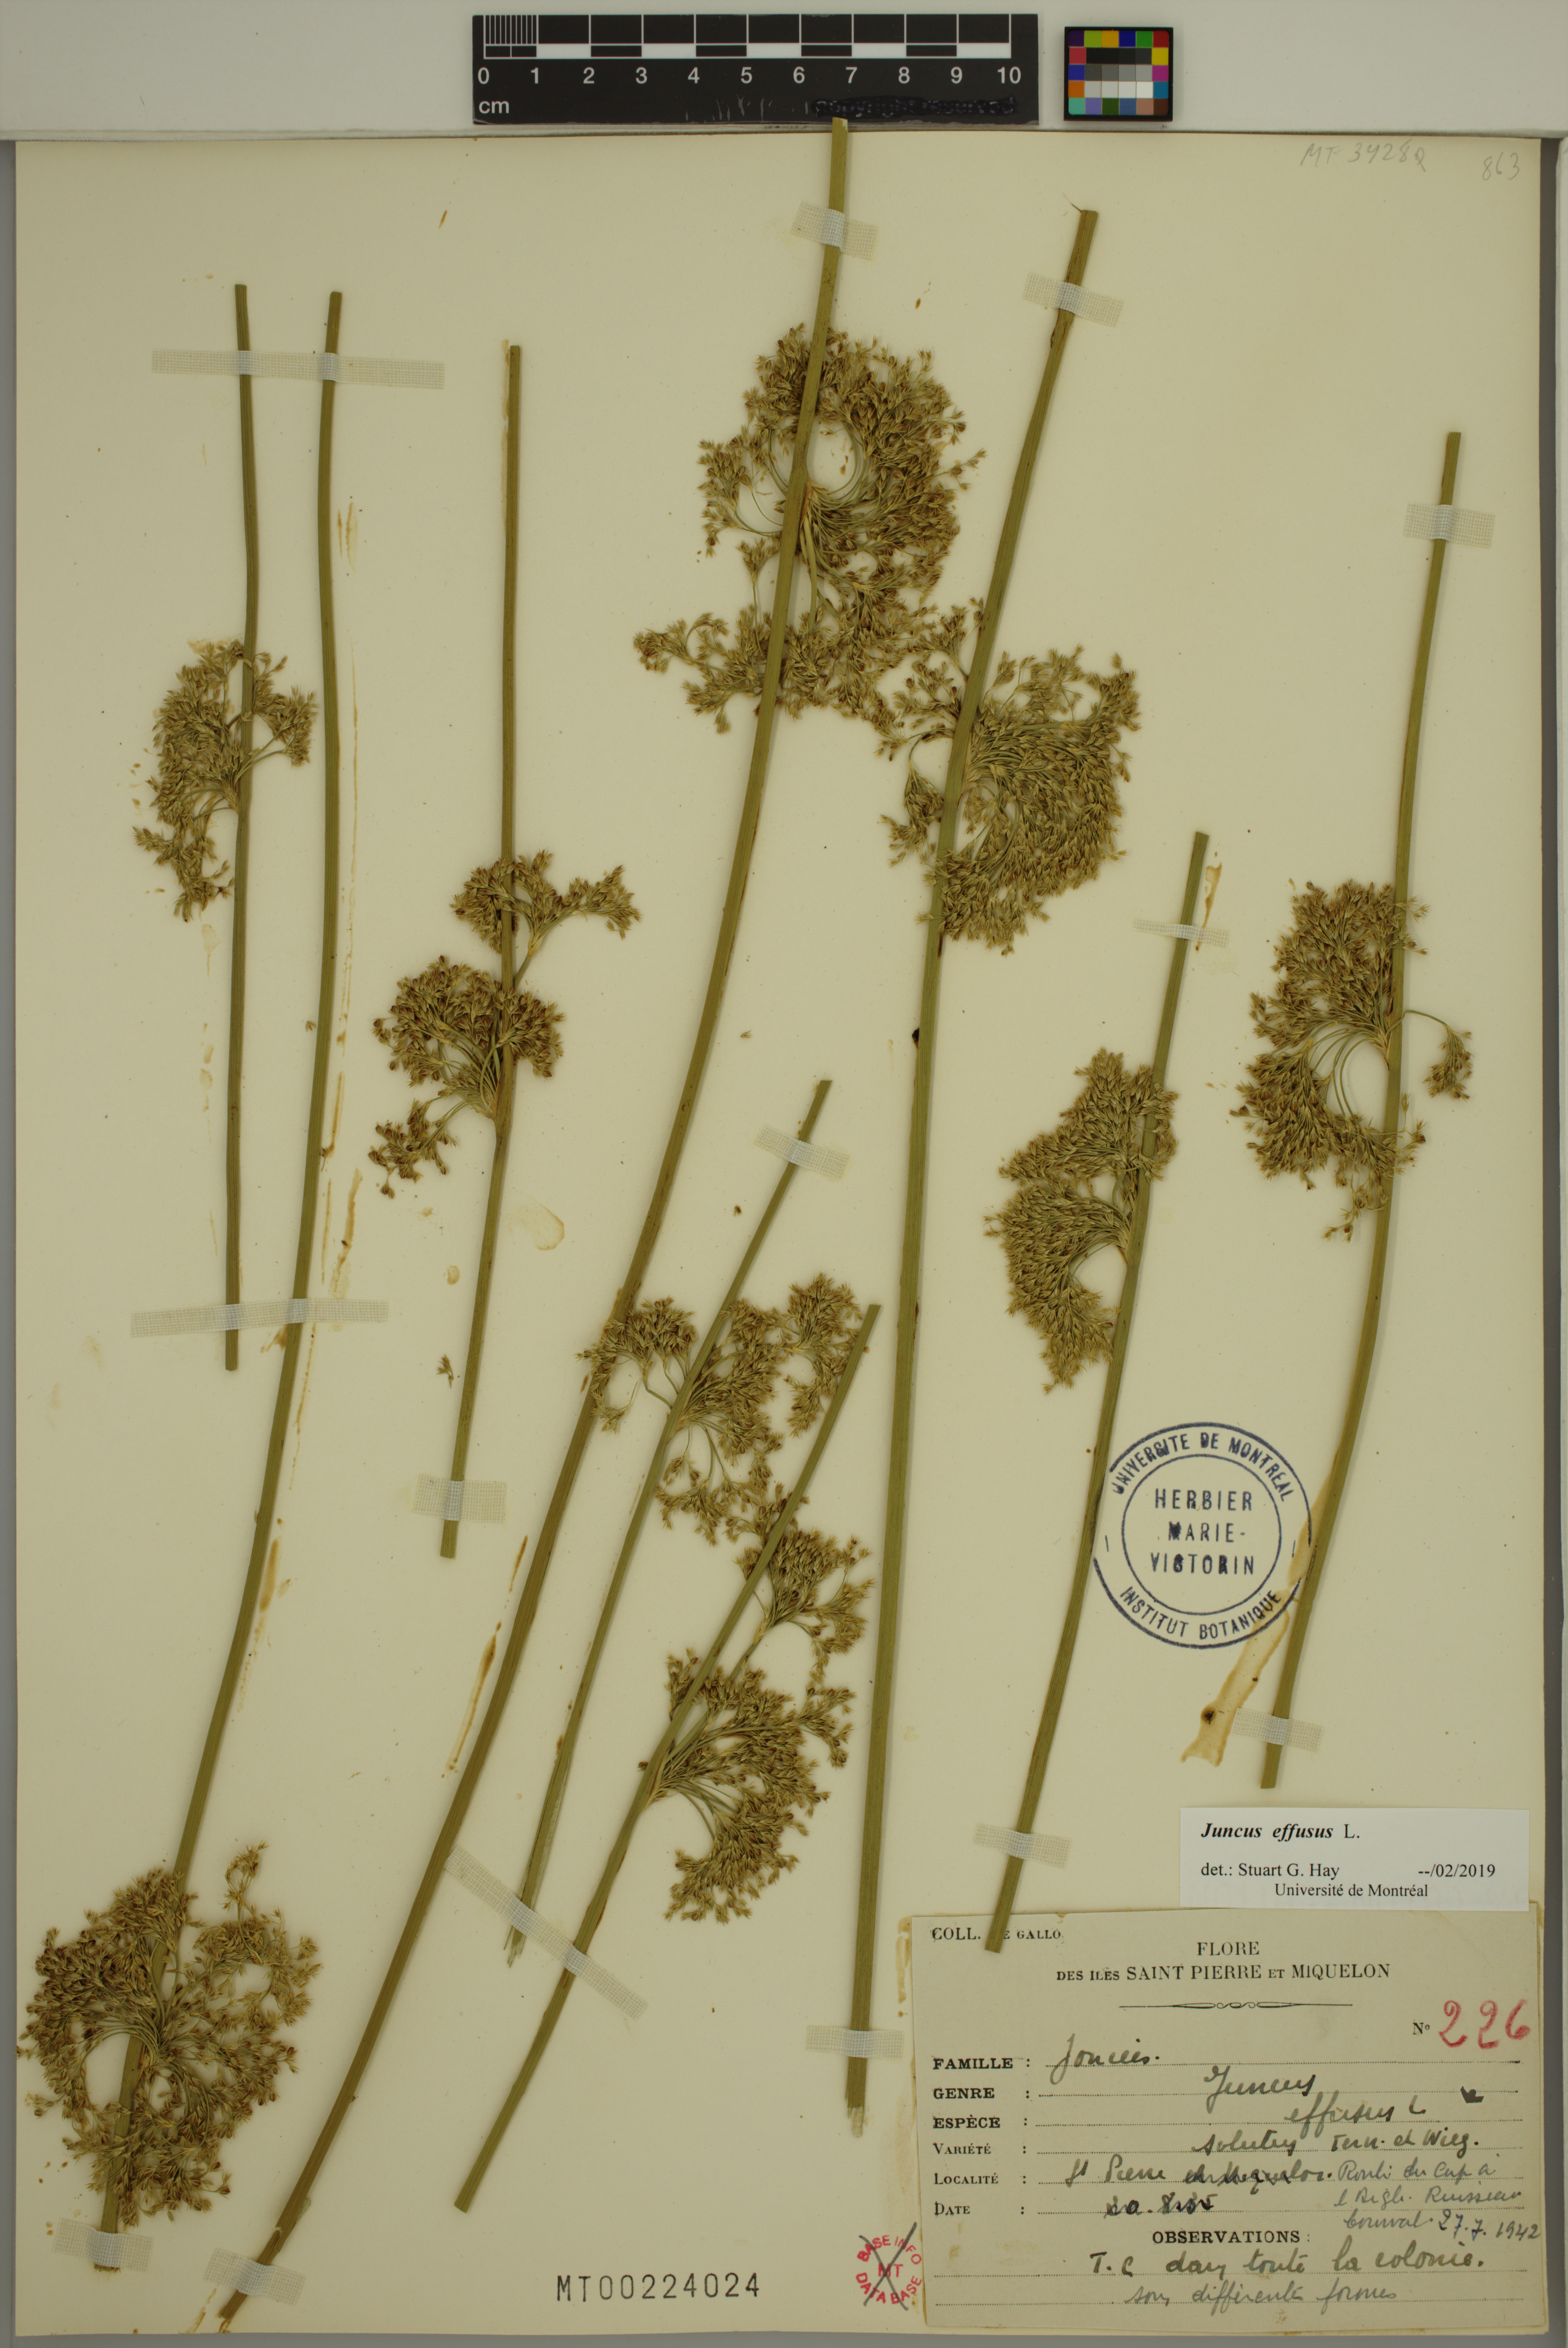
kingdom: Plantae
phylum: Tracheophyta
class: Liliopsida
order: Poales
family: Juncaceae
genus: Juncus
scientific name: Juncus effusus
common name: Soft rush
